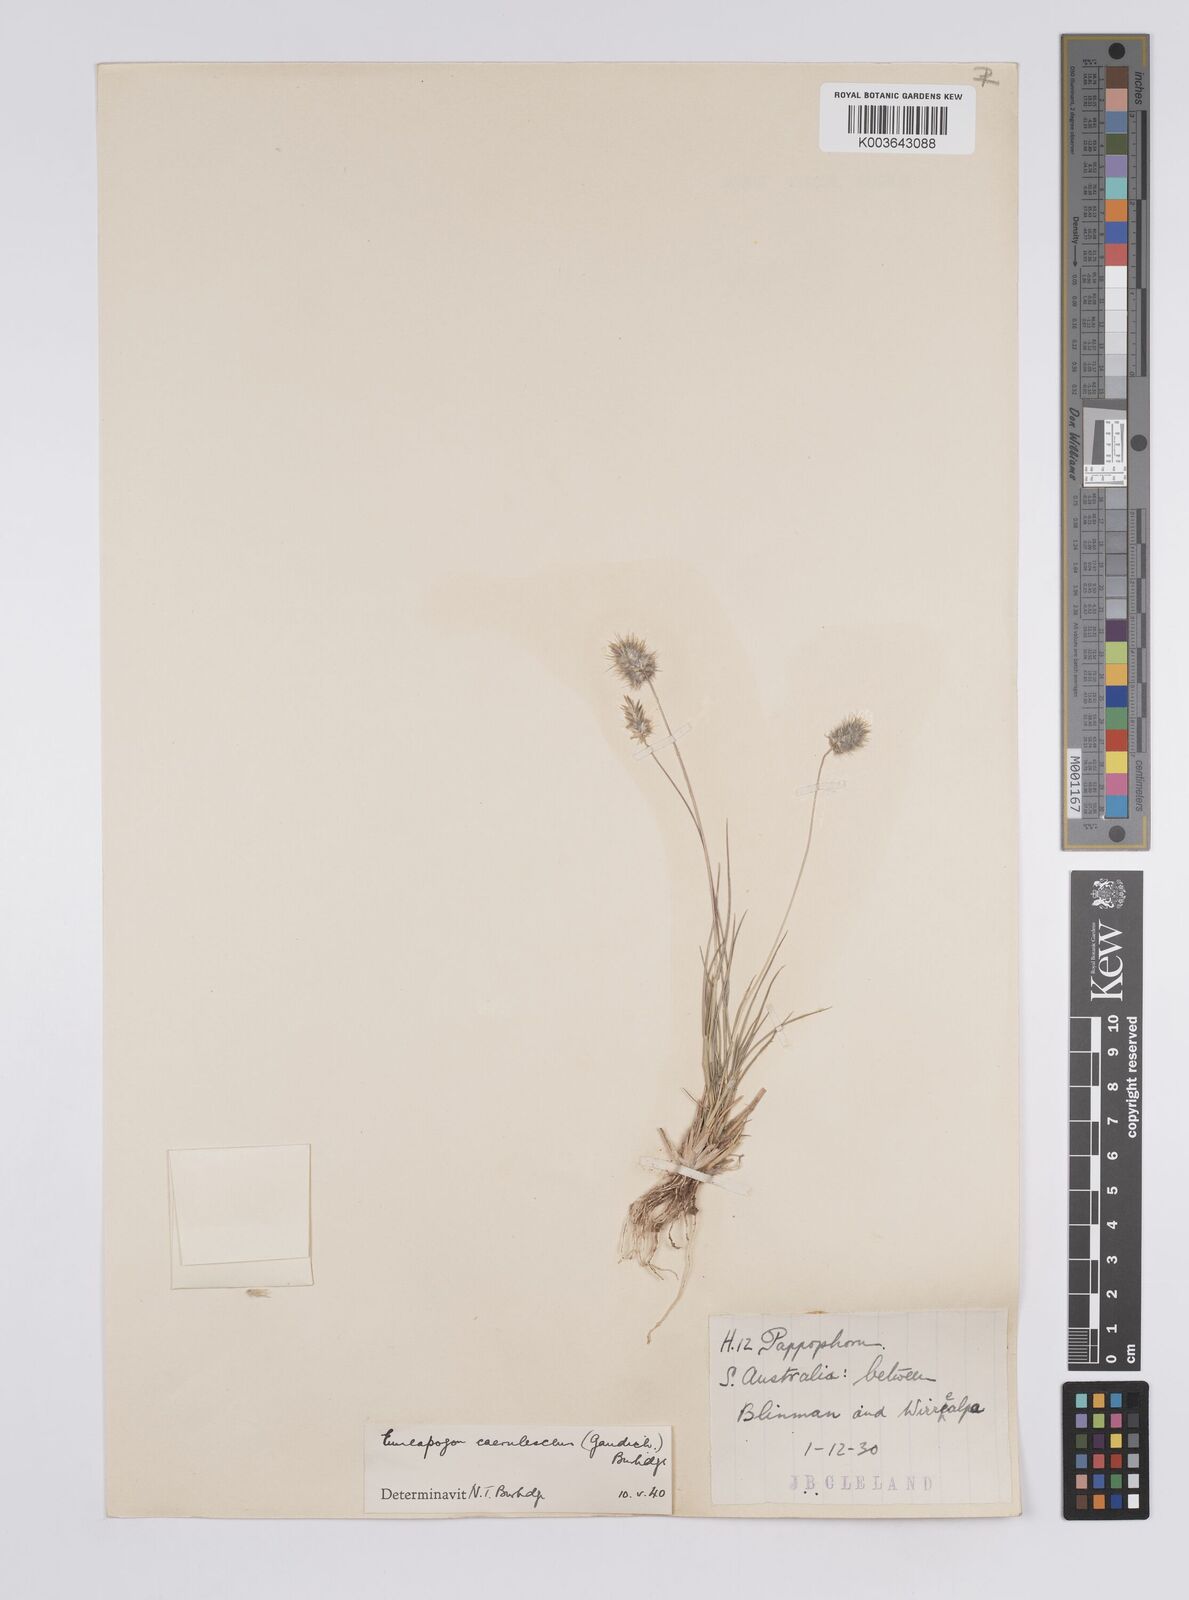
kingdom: Plantae
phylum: Tracheophyta
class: Liliopsida
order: Poales
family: Poaceae
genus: Enneapogon
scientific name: Enneapogon caerulescens
